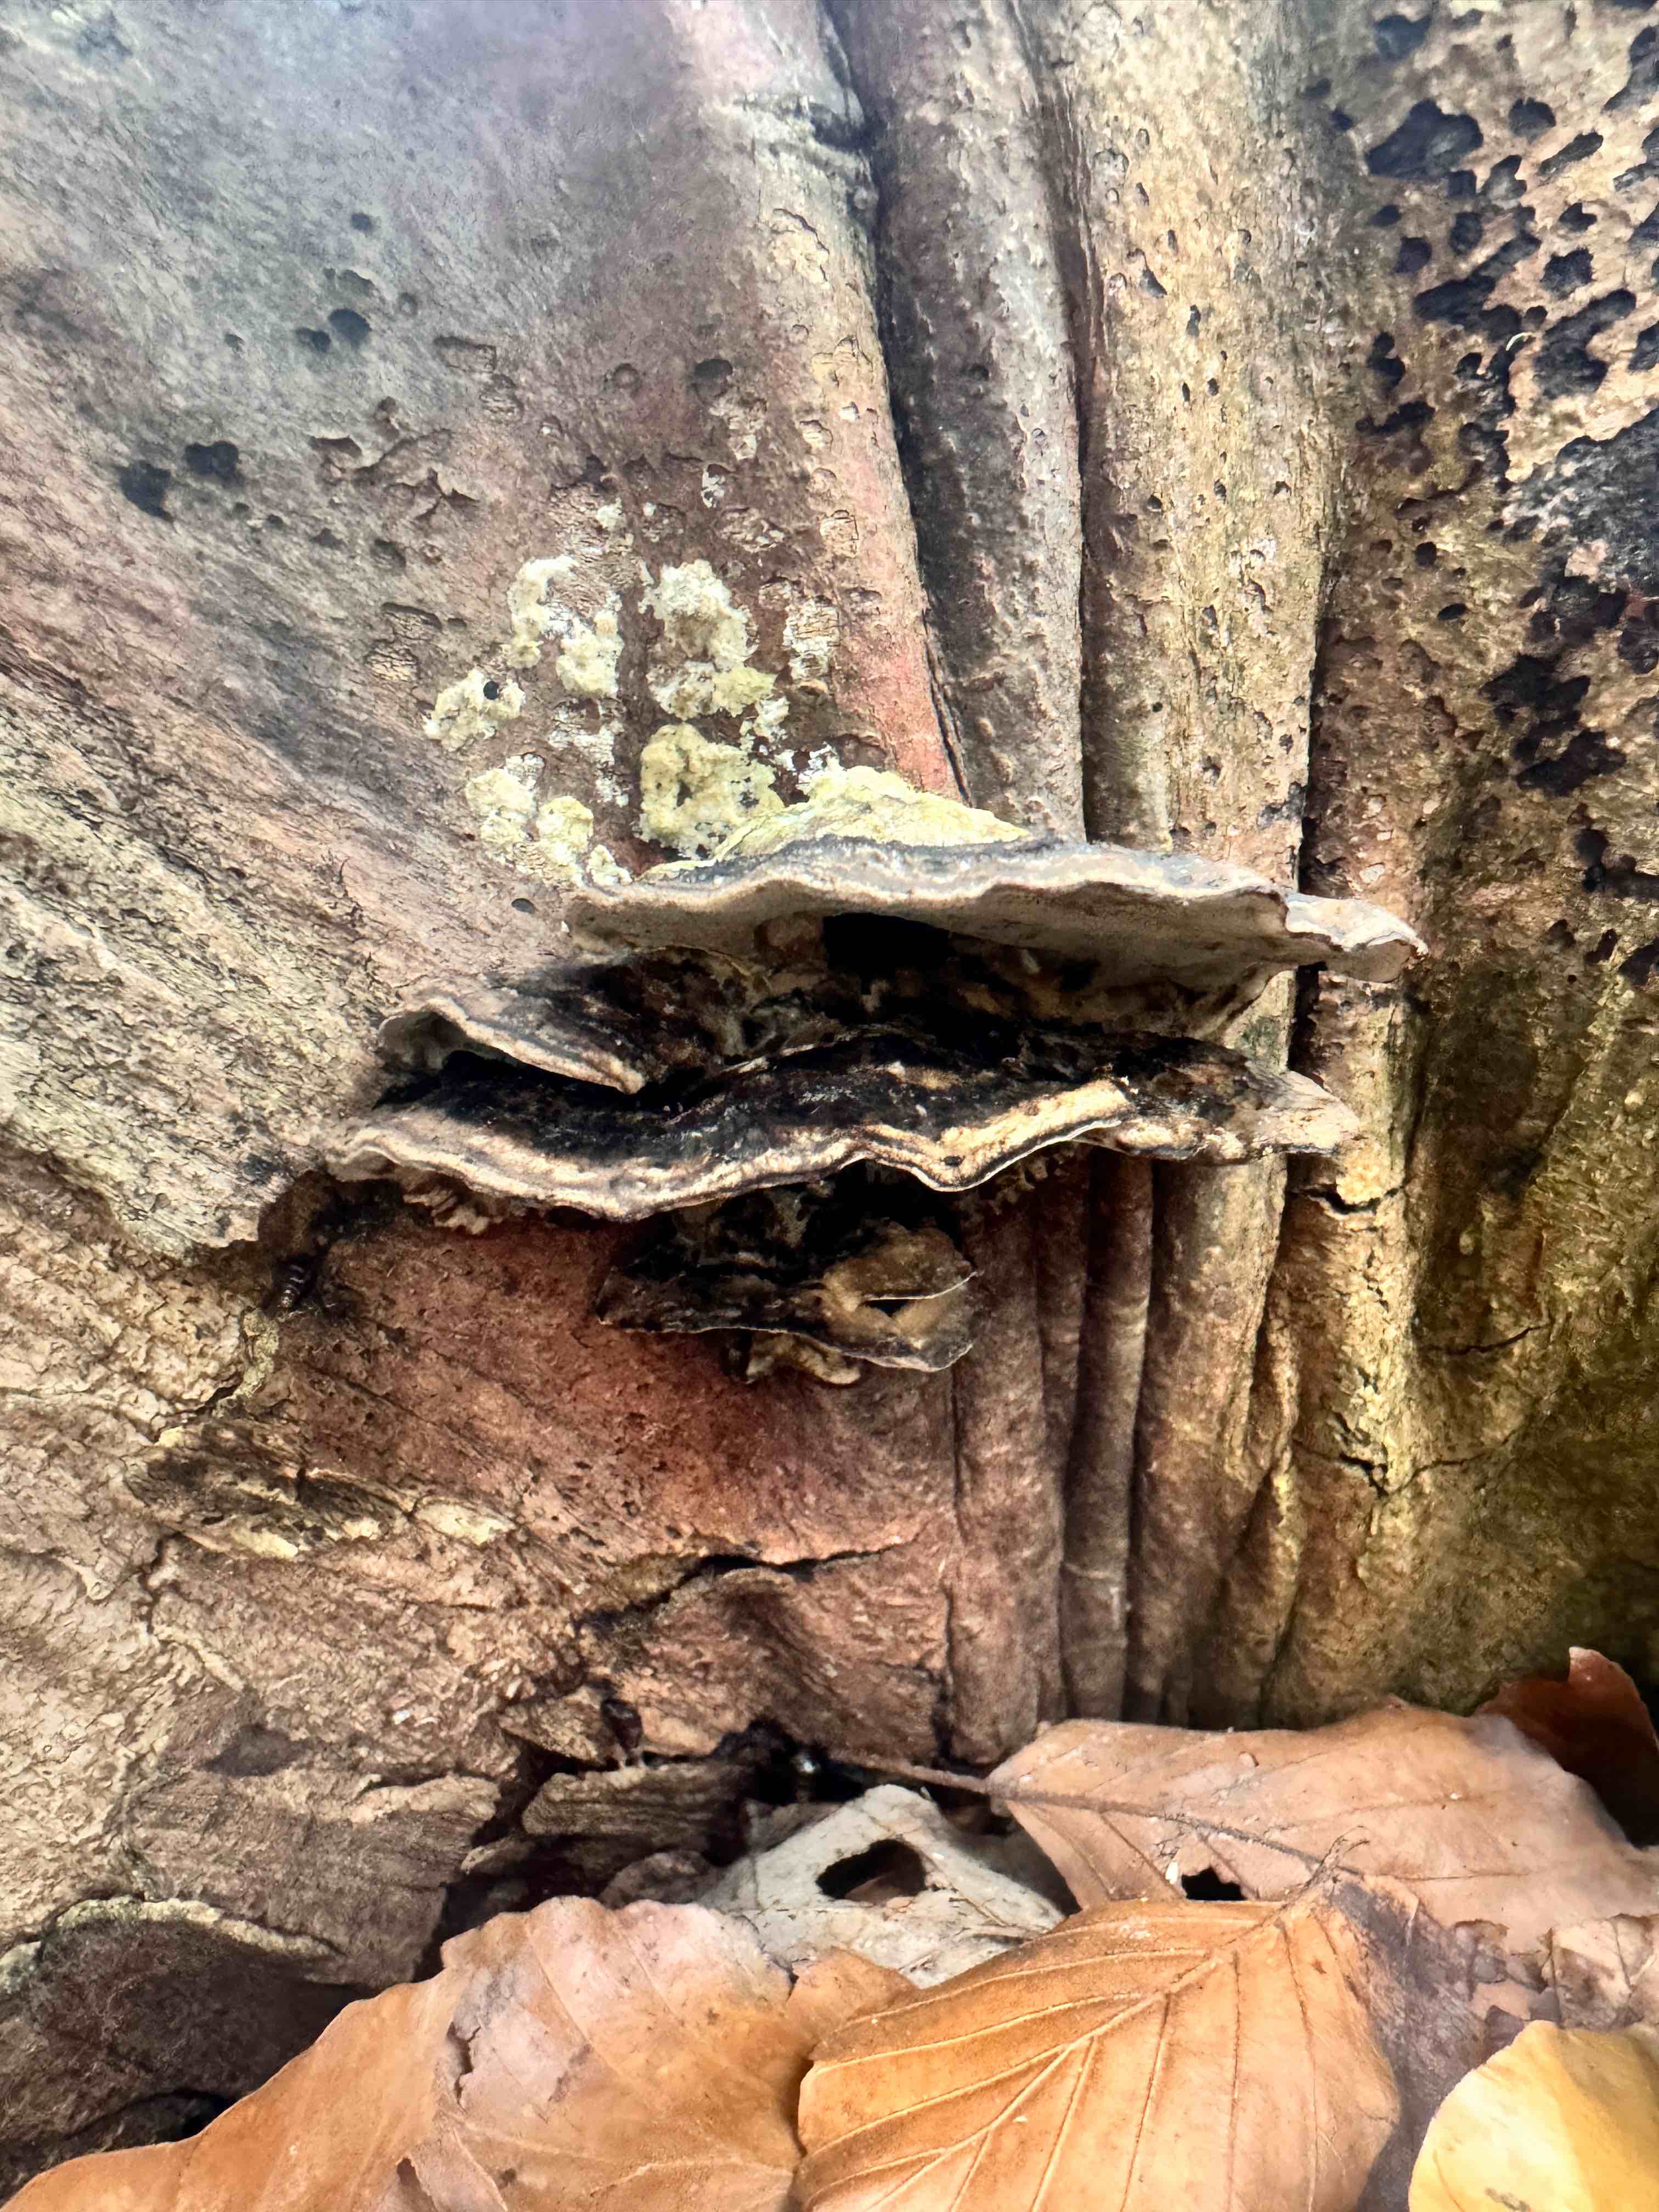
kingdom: Fungi
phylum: Basidiomycota
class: Agaricomycetes
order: Polyporales
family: Polyporaceae
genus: Trametes
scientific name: Trametes versicolor
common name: broget læderporesvamp
